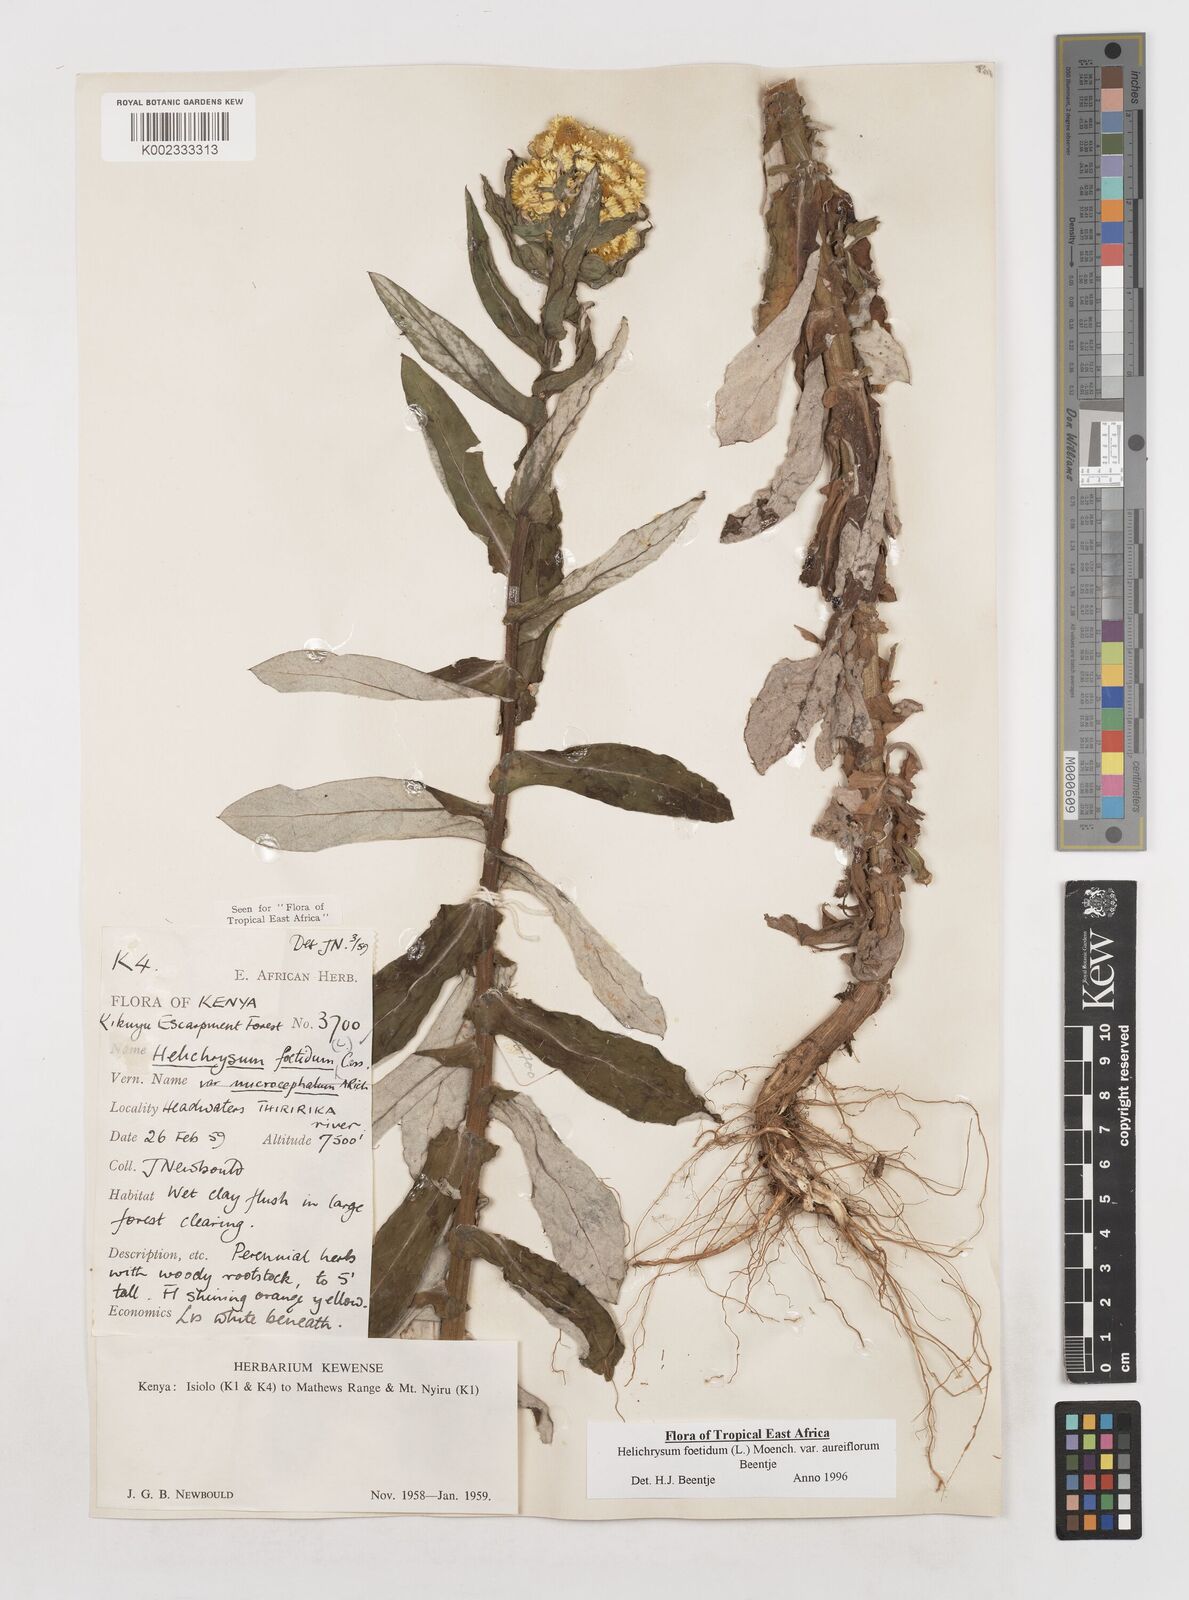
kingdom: Plantae
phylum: Tracheophyta
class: Magnoliopsida
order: Asterales
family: Asteraceae
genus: Helichrysum
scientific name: Helichrysum foetidum
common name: Stinking everlasting
